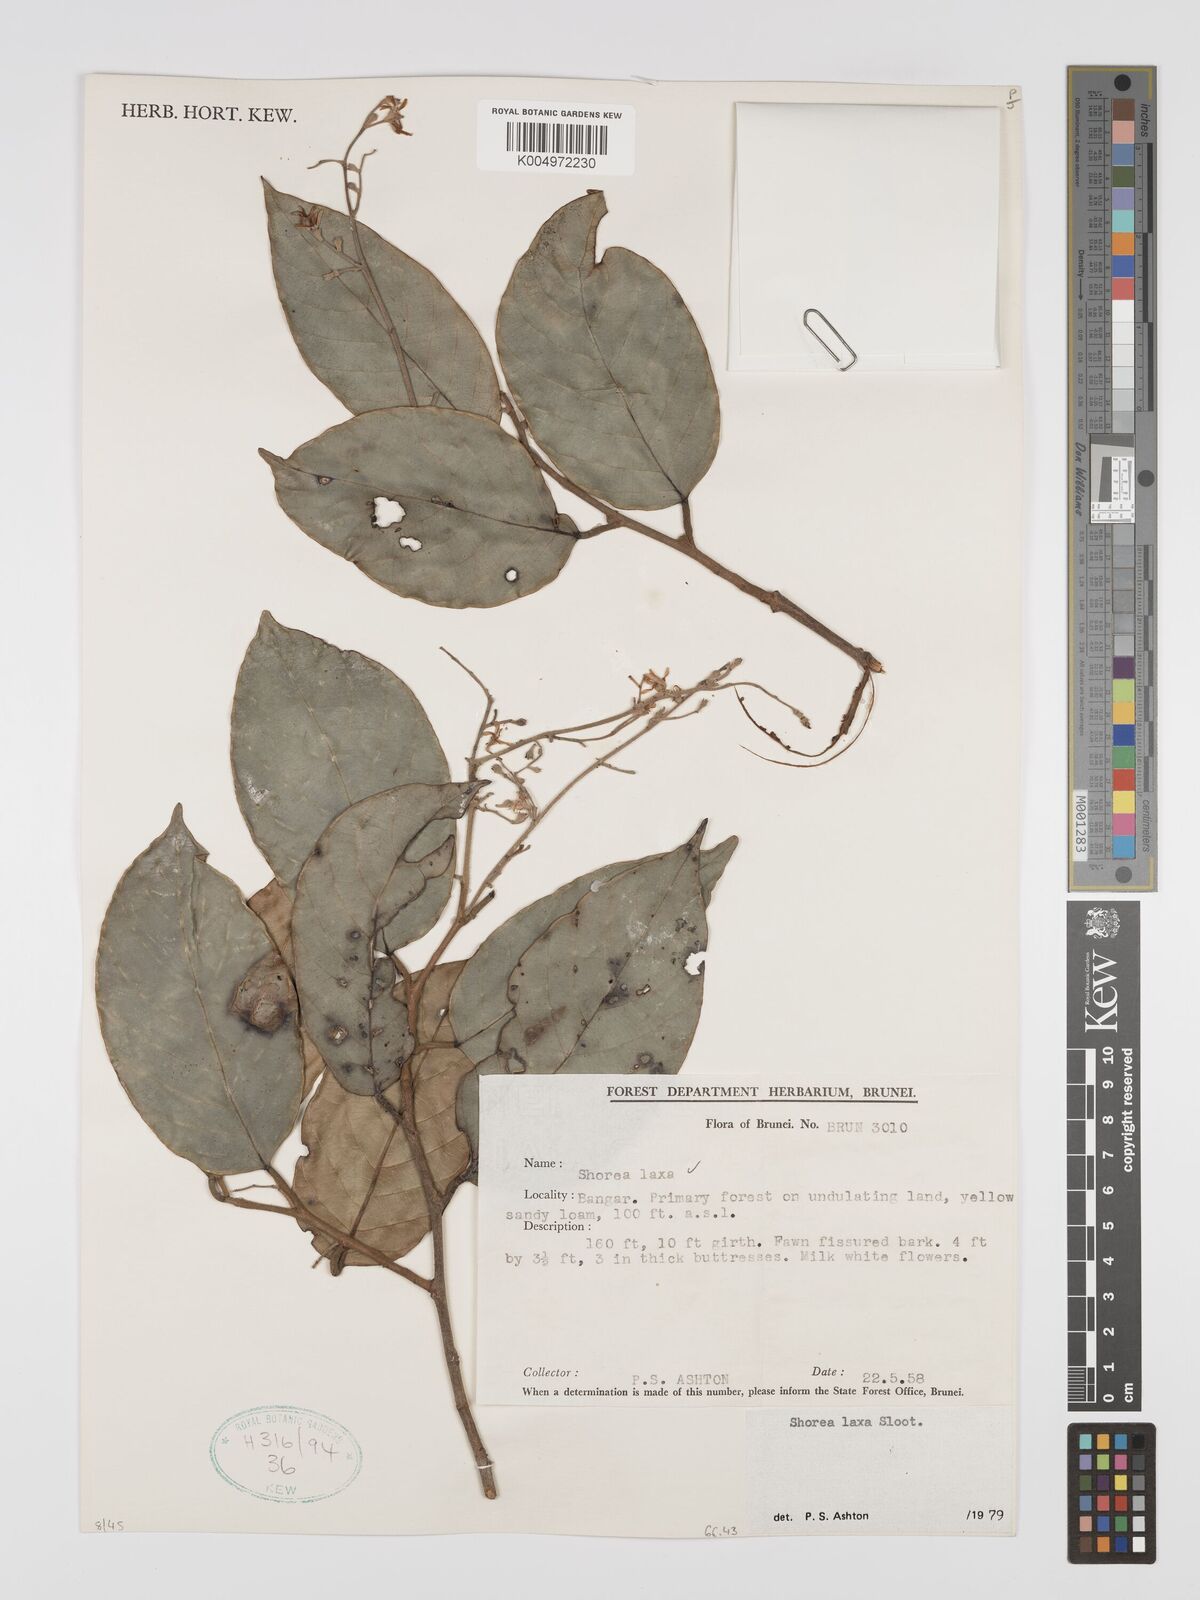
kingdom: Plantae
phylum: Tracheophyta
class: Magnoliopsida
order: Malvales
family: Dipterocarpaceae
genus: Shorea
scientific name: Shorea laxa
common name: Yellow meranti
